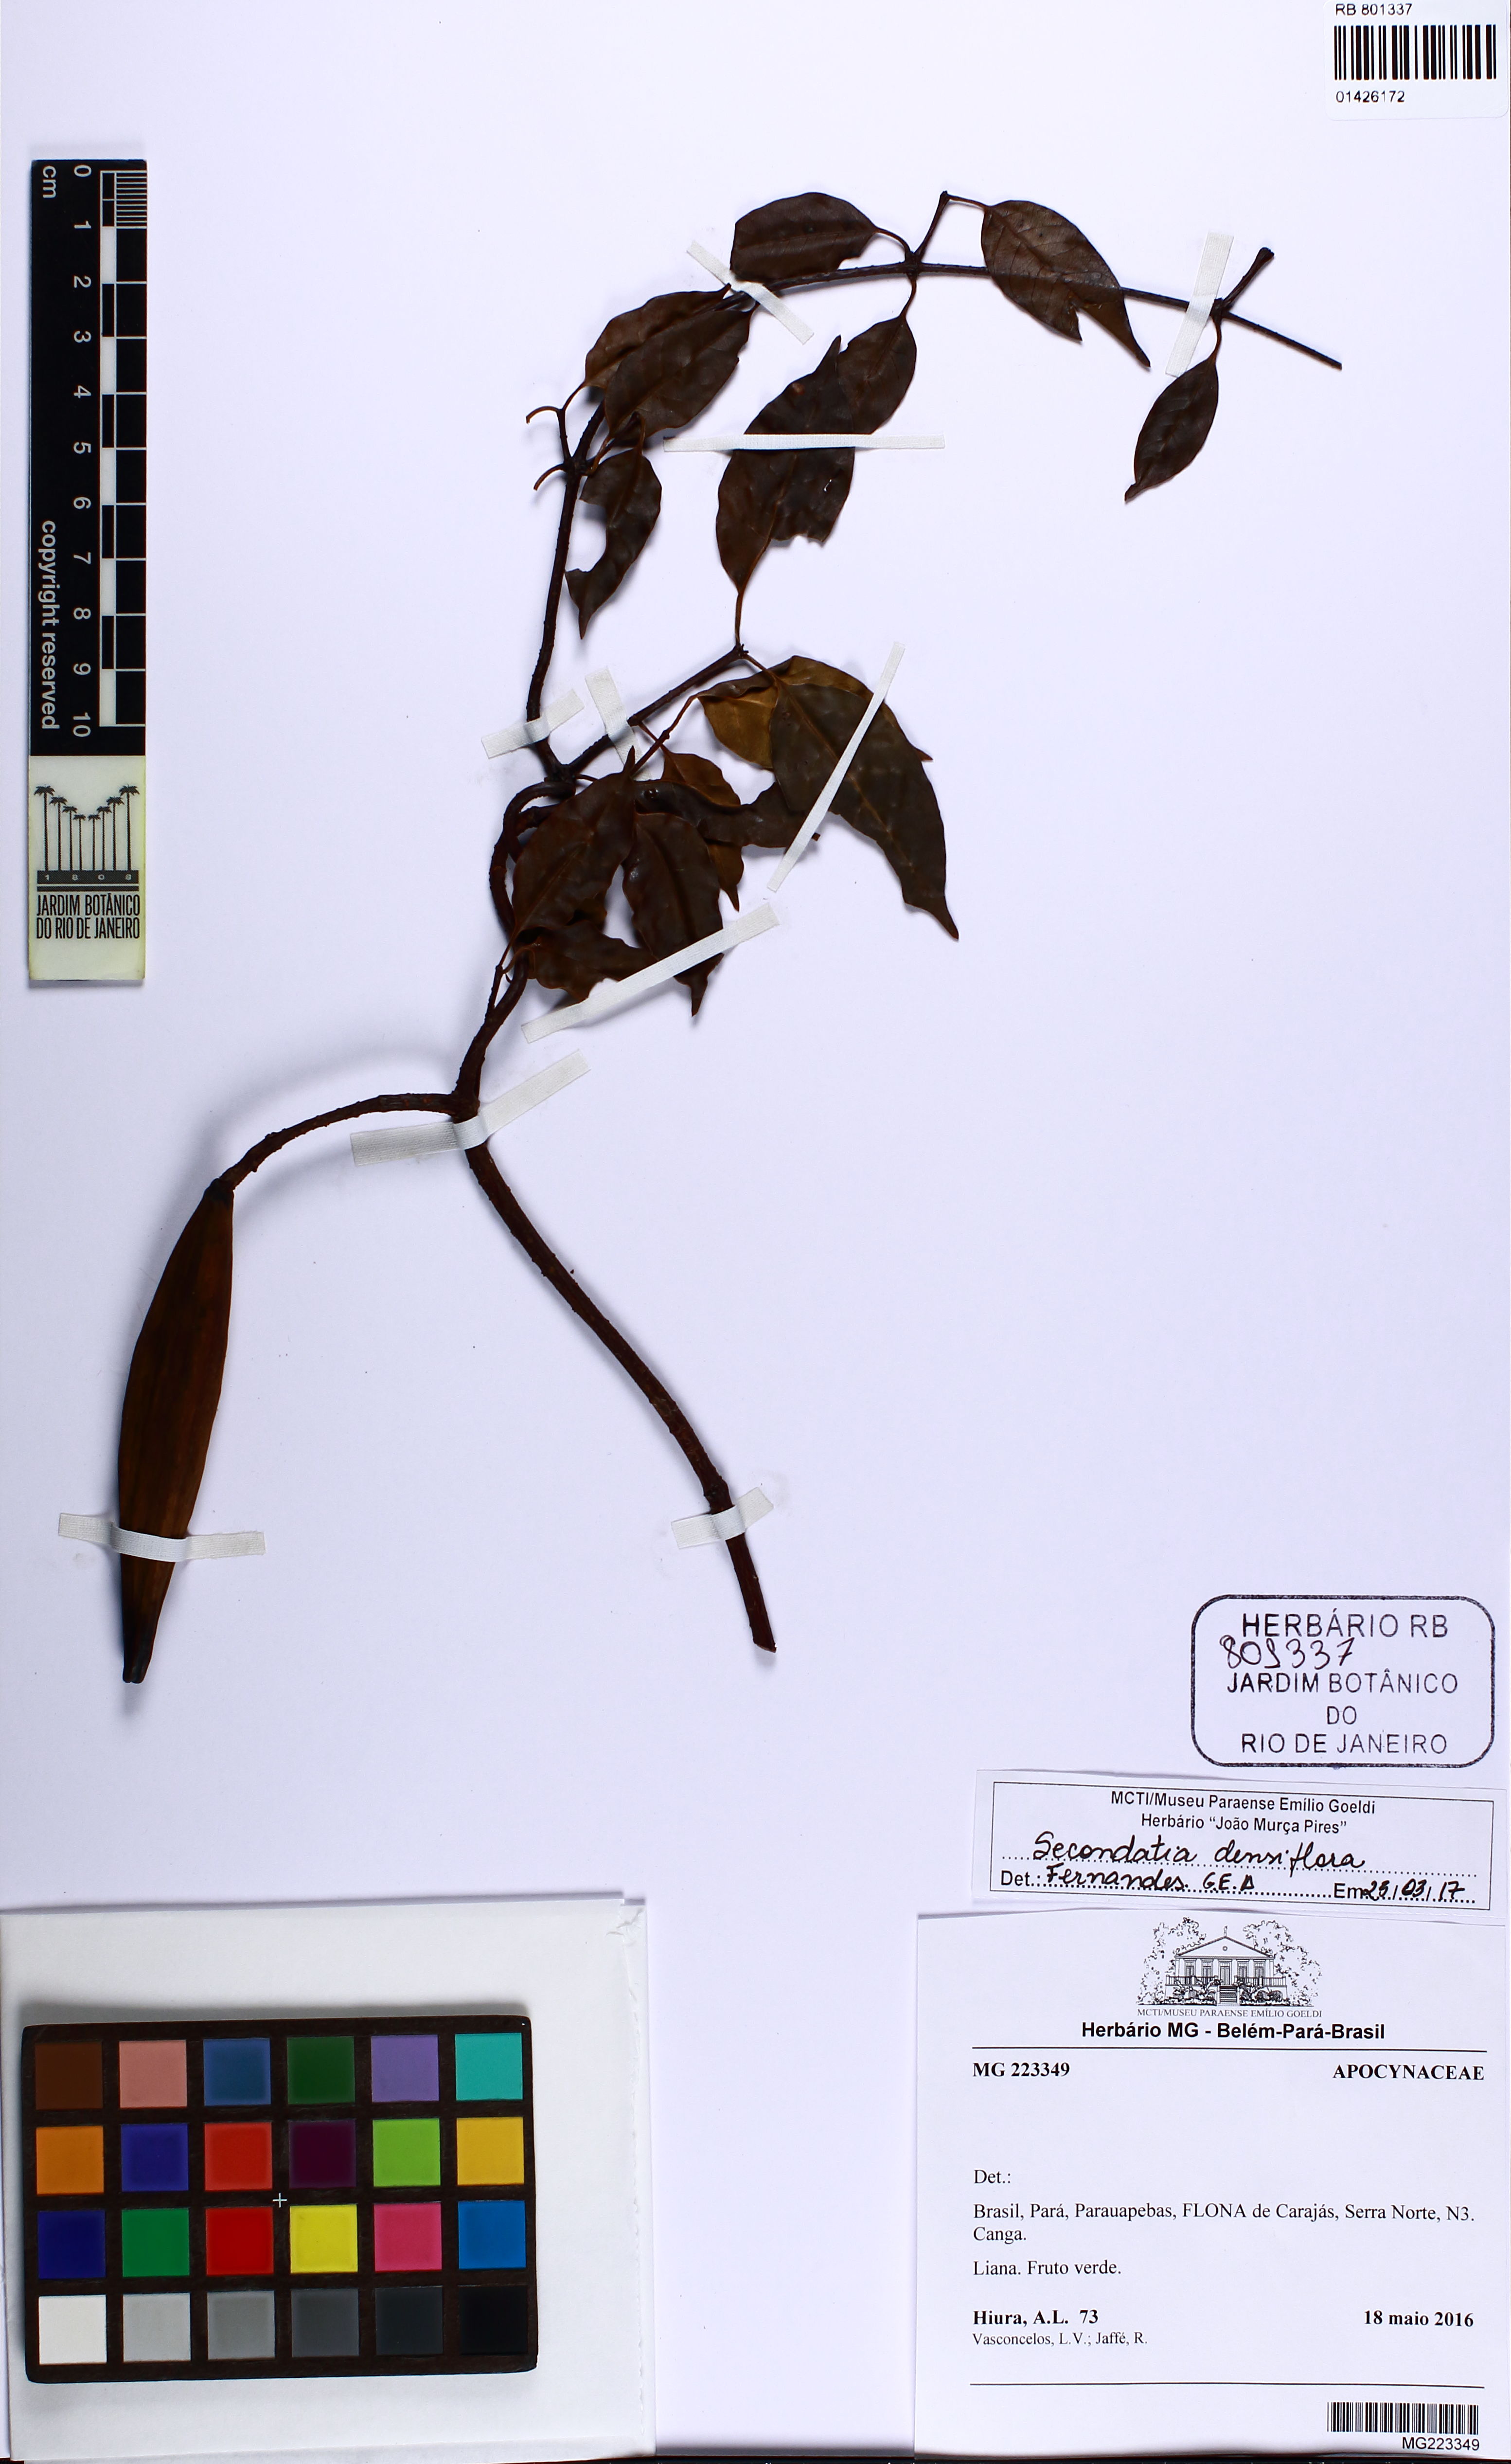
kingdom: Plantae
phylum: Tracheophyta
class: Magnoliopsida
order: Gentianales
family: Apocynaceae
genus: Secondatia
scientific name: Secondatia densiflora
